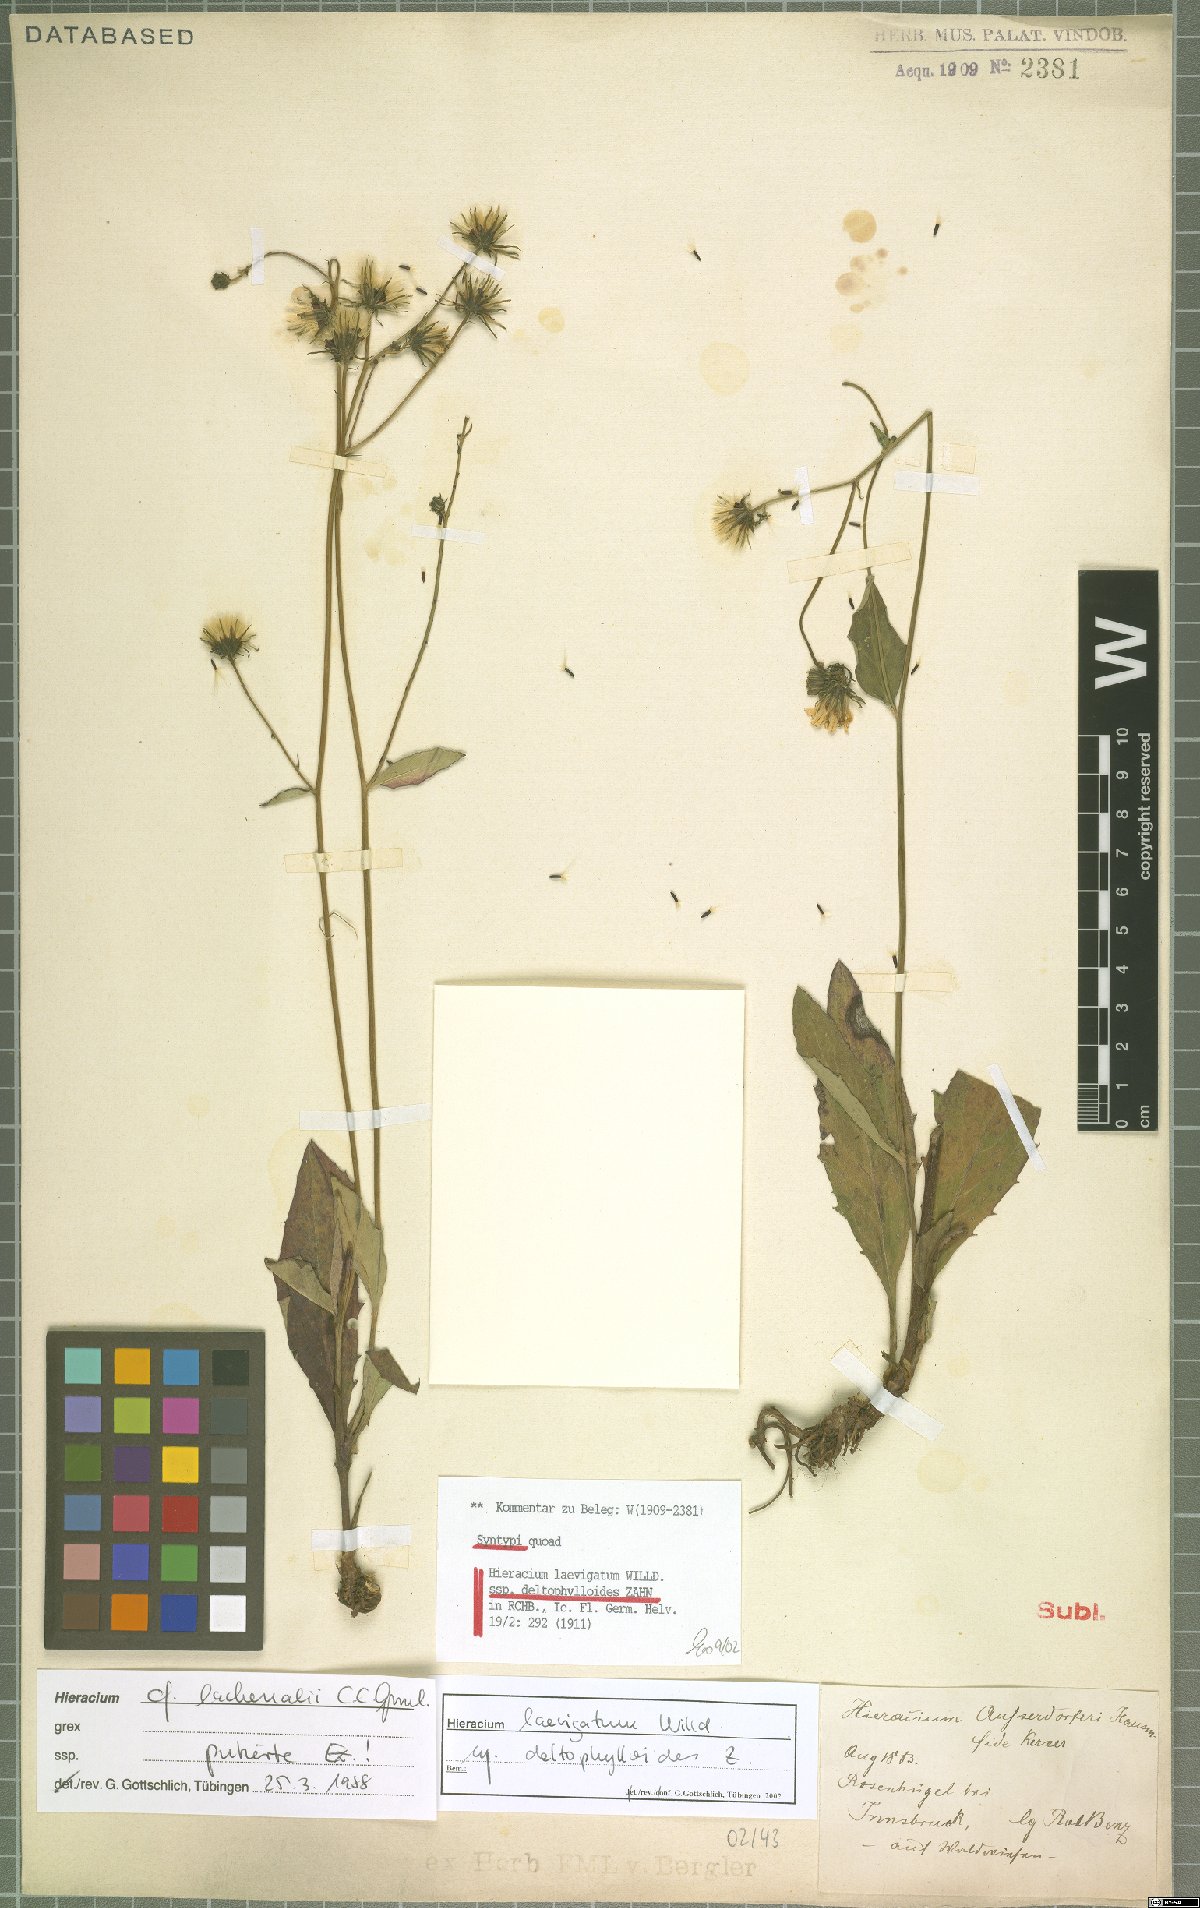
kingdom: Plantae
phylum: Tracheophyta
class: Magnoliopsida
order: Asterales
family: Asteraceae
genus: Hieracium
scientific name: Hieracium laevigatum
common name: Smooth hawkweed
